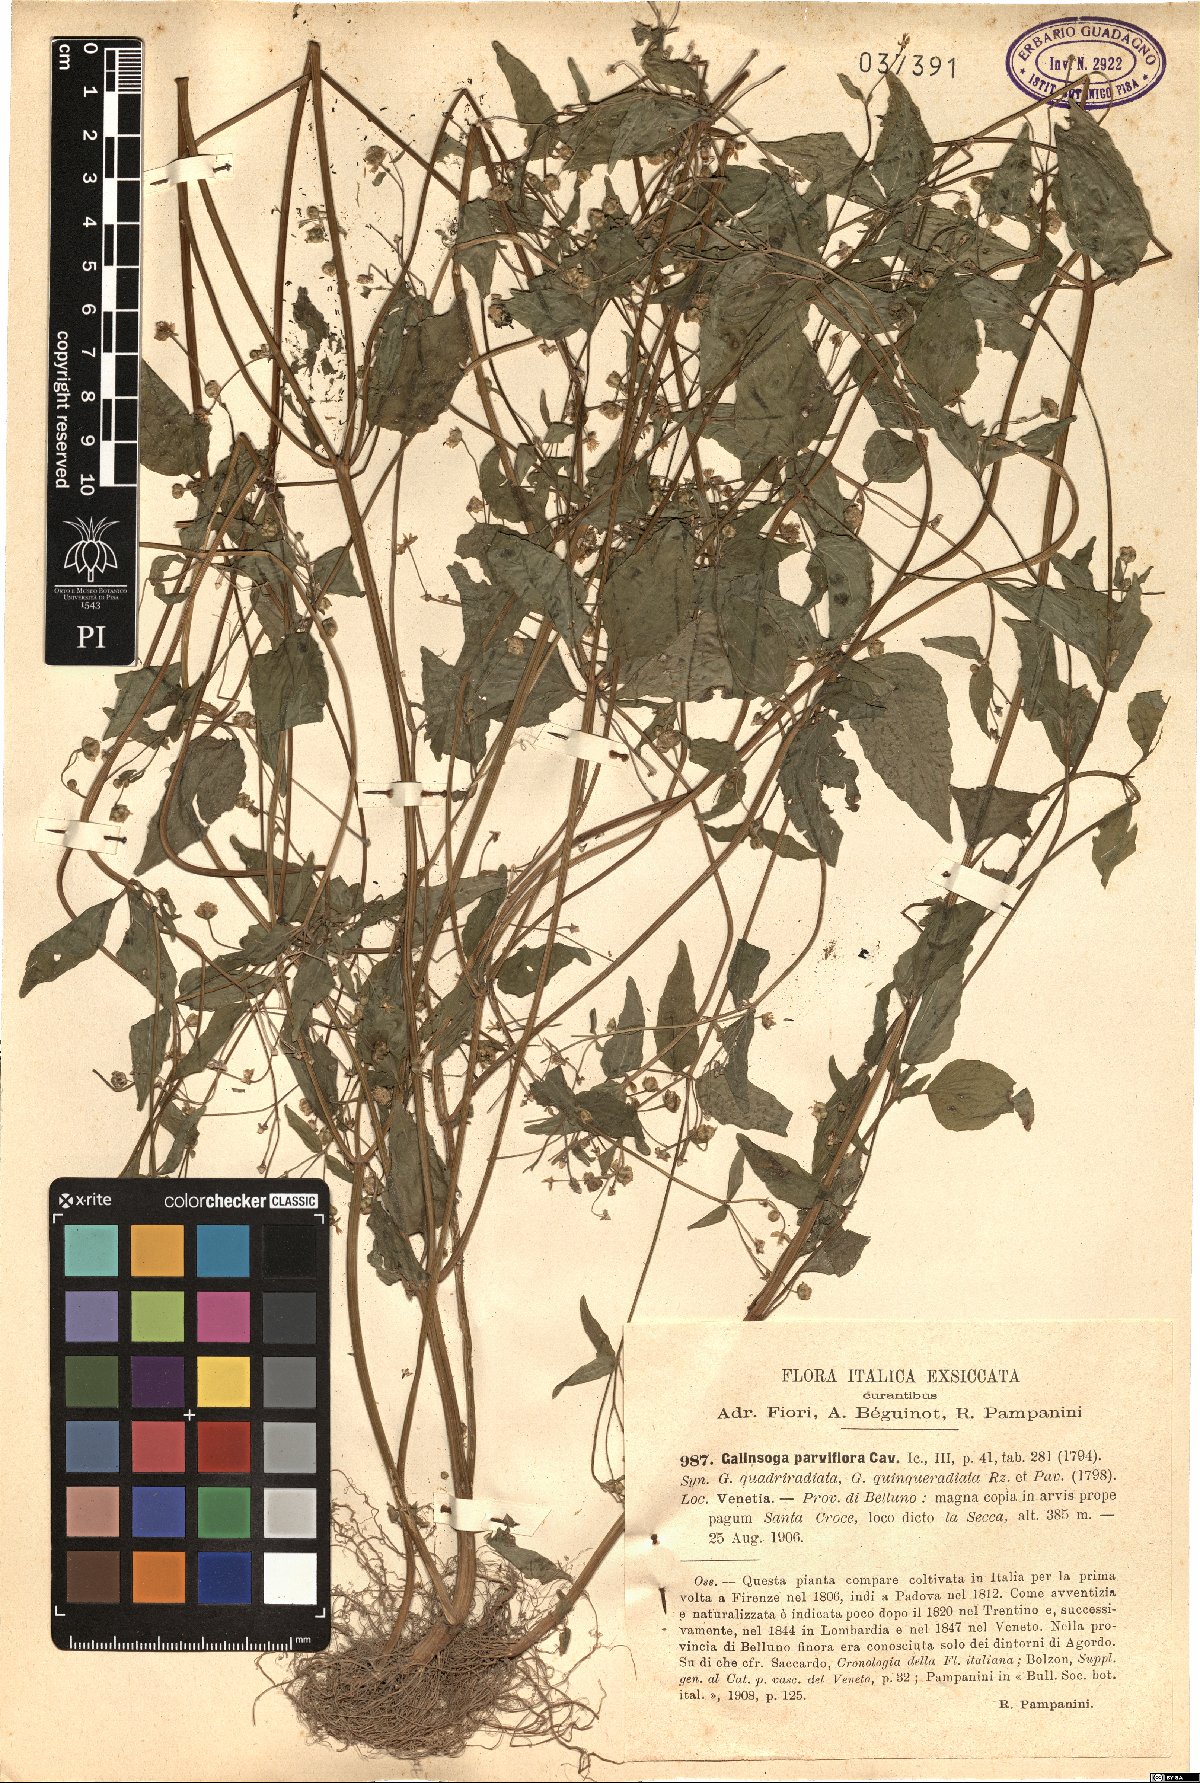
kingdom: Plantae
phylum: Tracheophyta
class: Magnoliopsida
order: Asterales
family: Asteraceae
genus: Galinsoga
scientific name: Galinsoga parviflora
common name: Gallant soldier
